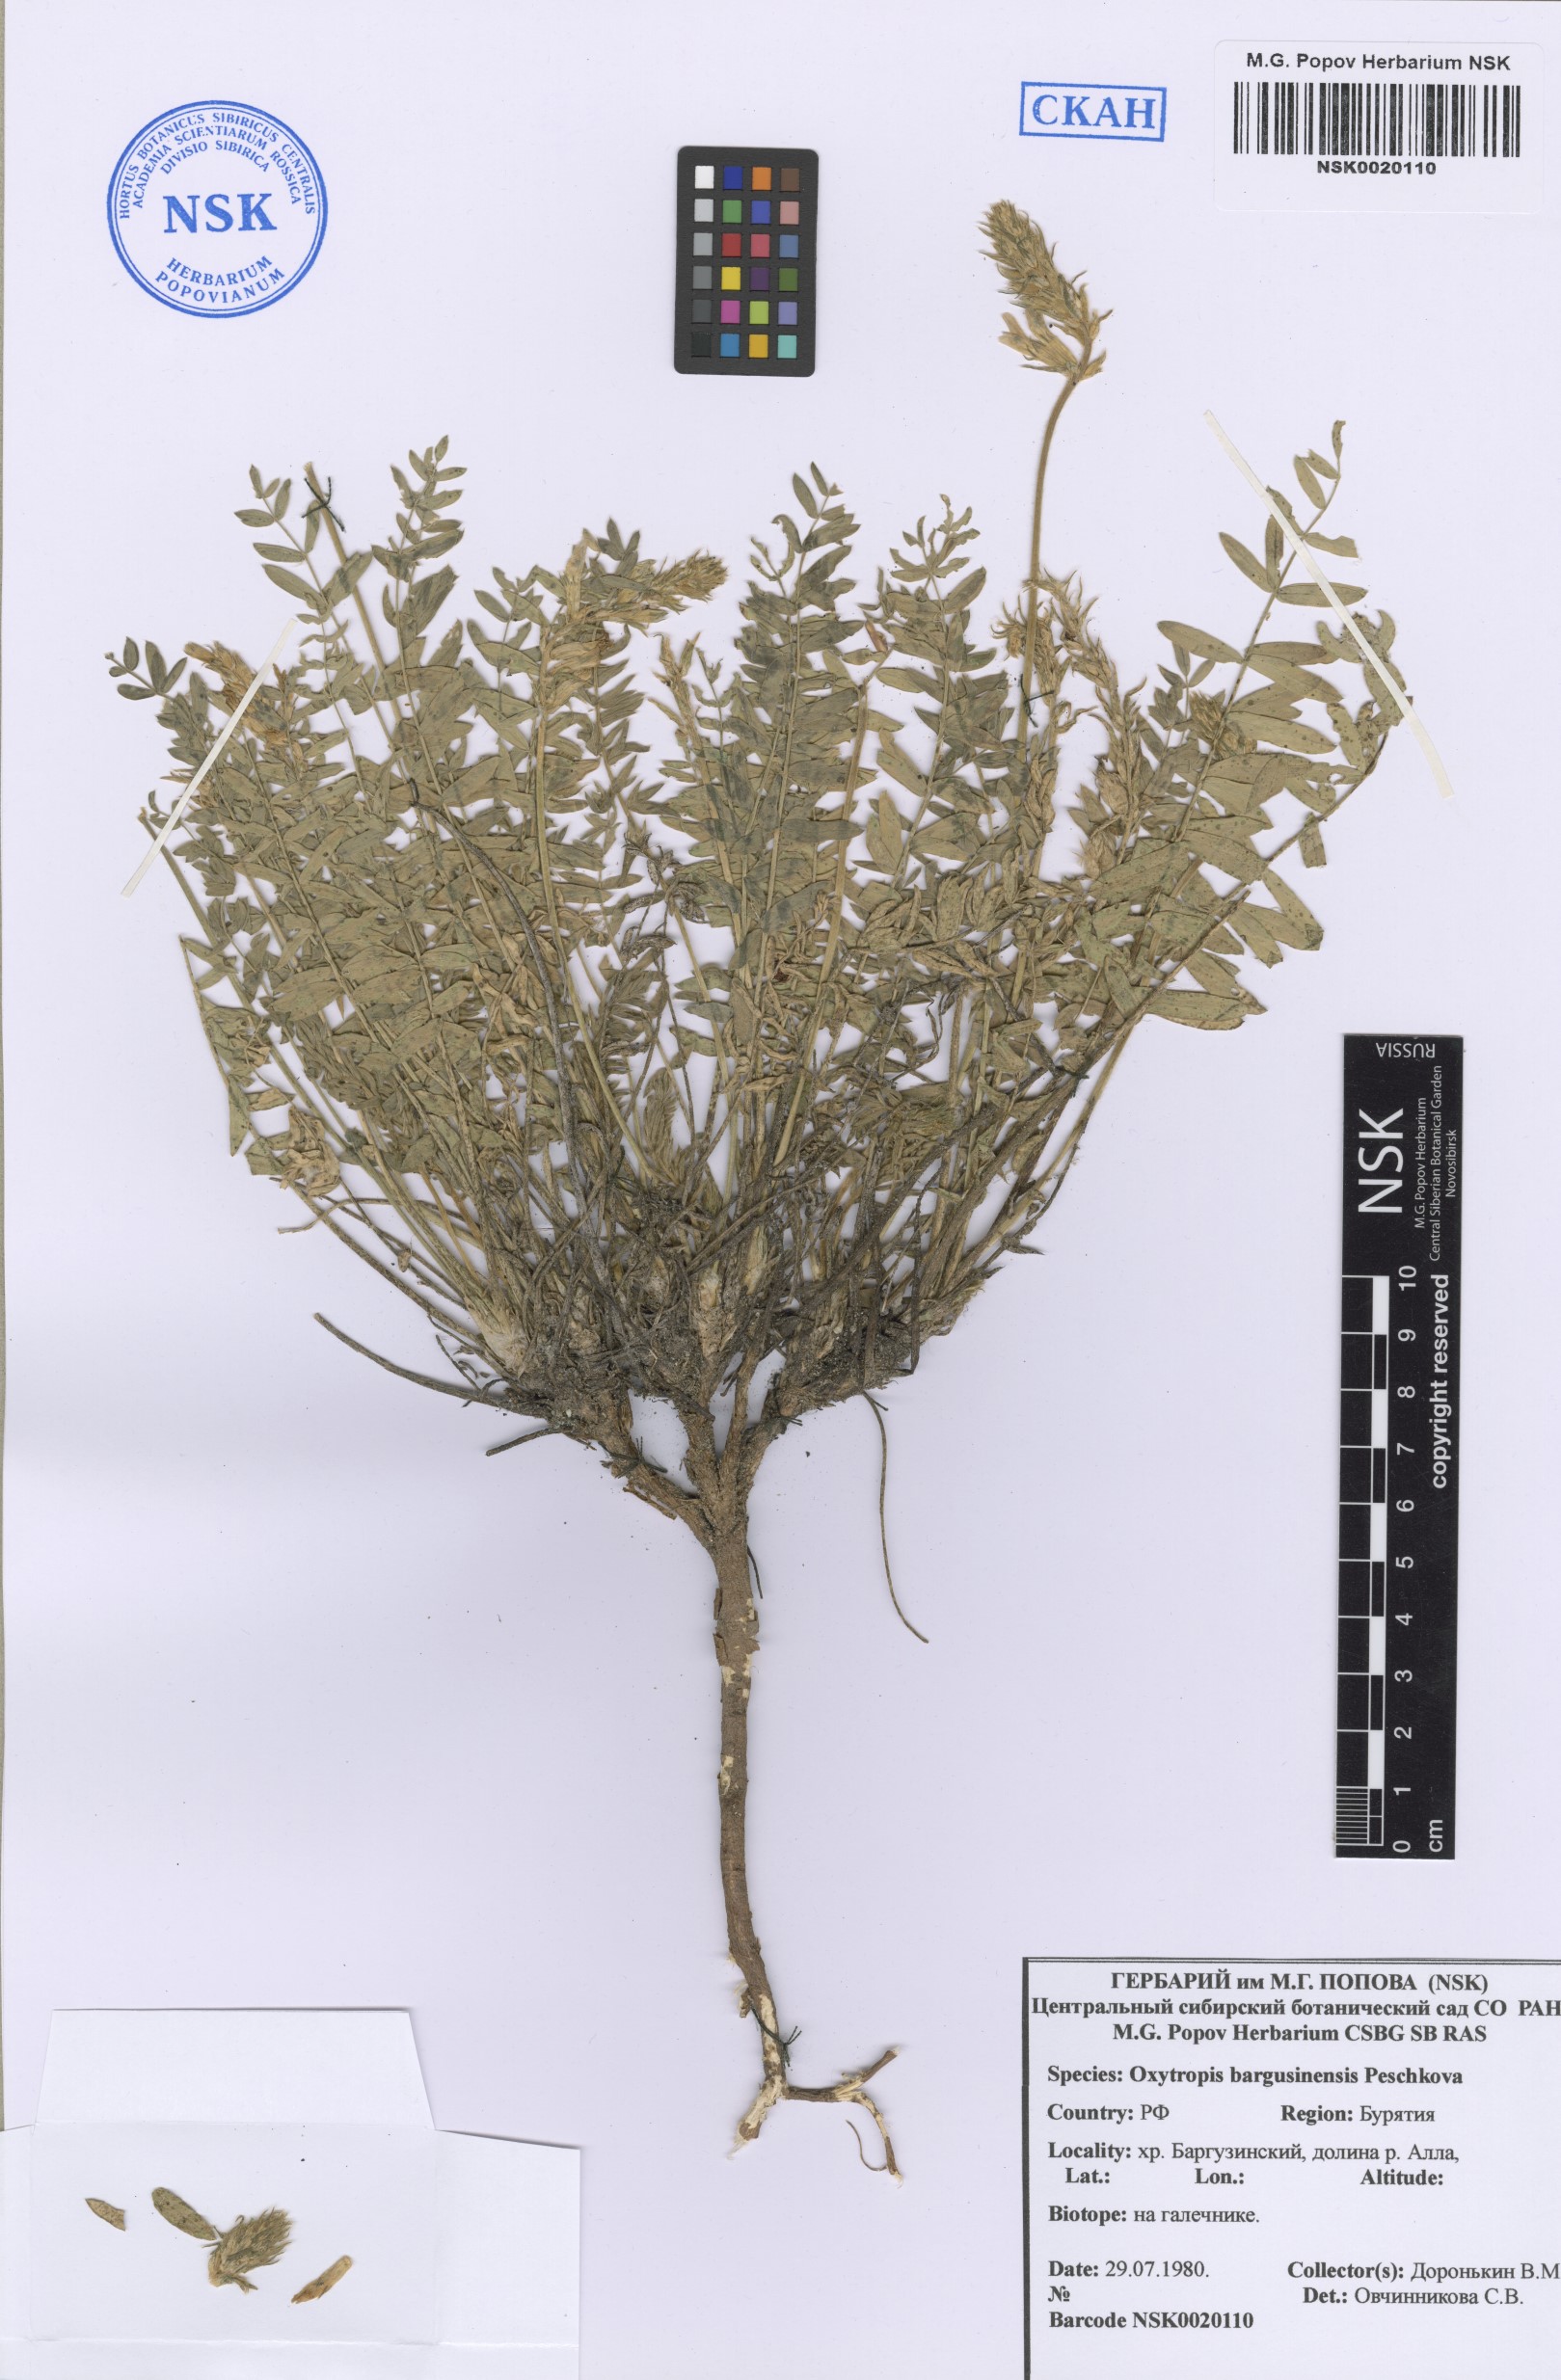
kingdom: Plantae
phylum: Tracheophyta
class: Magnoliopsida
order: Fabales
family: Fabaceae
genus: Oxytropis
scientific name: Oxytropis bargusinensis
